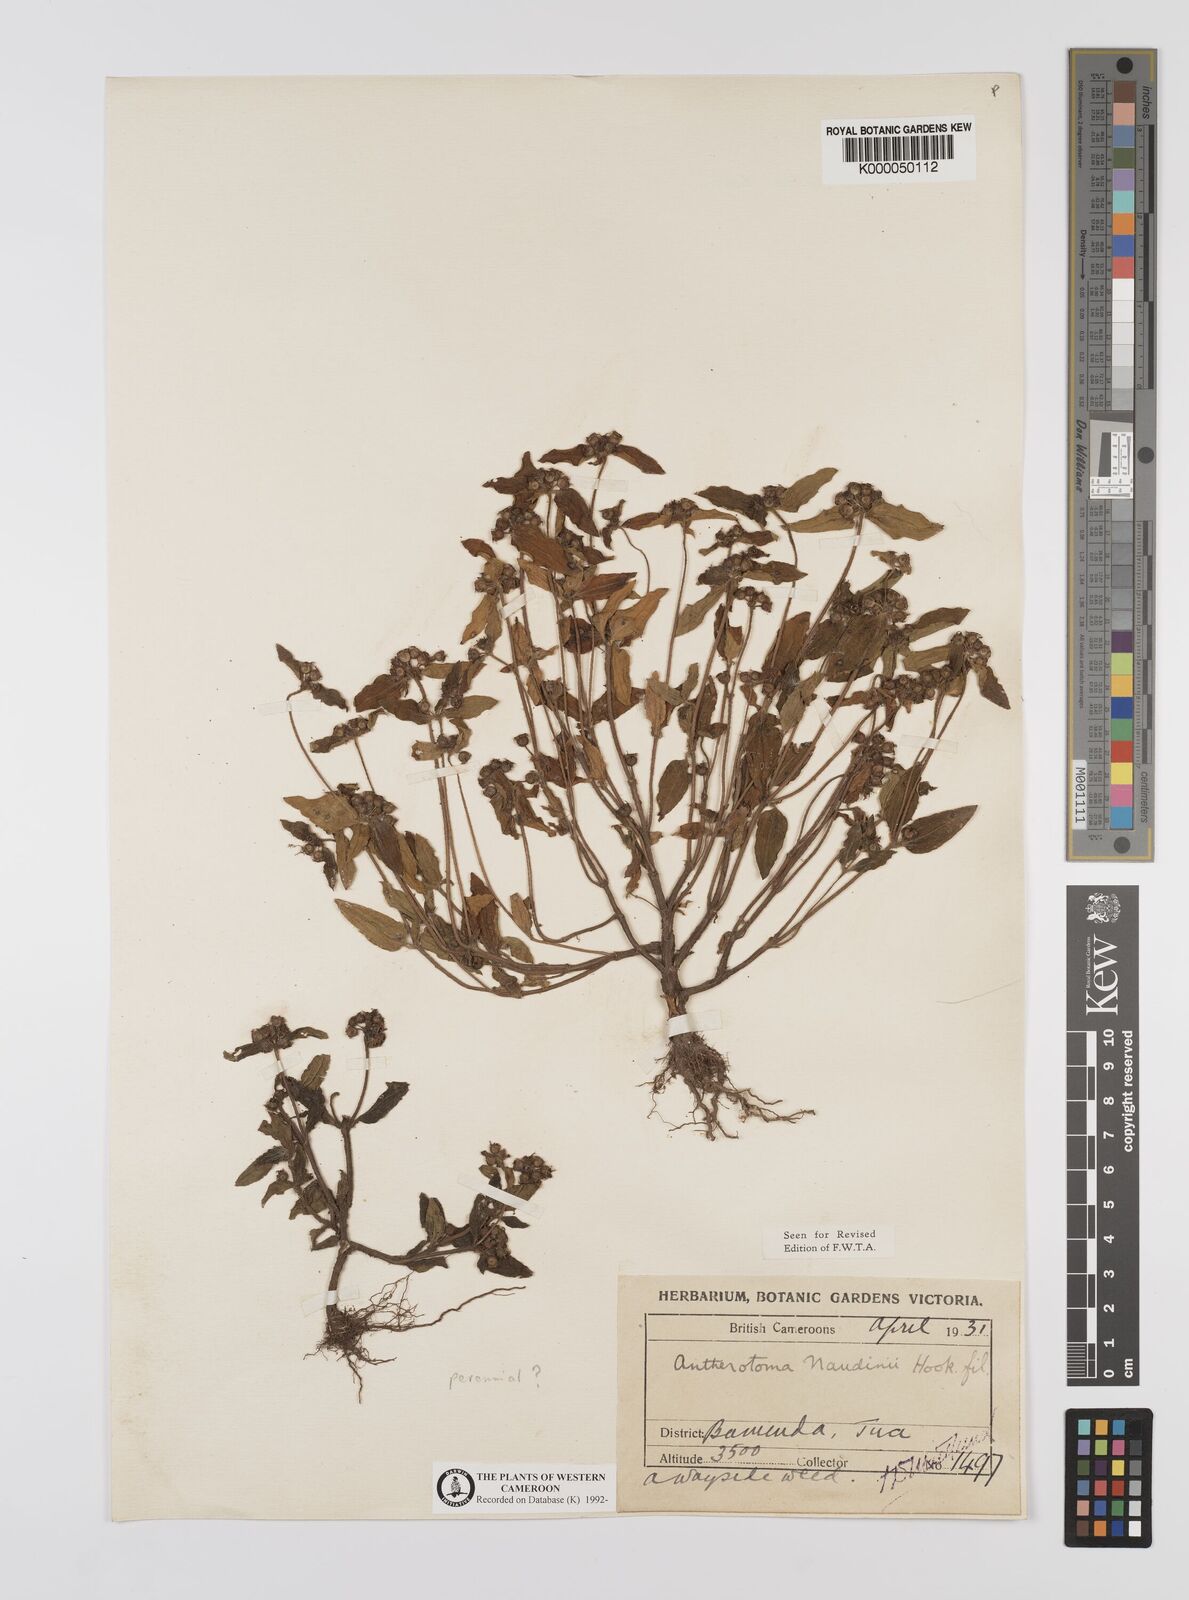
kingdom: Plantae
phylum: Tracheophyta
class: Magnoliopsida
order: Myrtales
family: Melastomataceae
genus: Antherotoma
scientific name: Antherotoma naudinii
